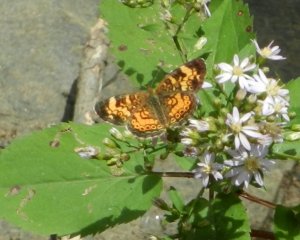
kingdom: Animalia
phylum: Arthropoda
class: Insecta
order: Lepidoptera
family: Nymphalidae
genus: Phyciodes
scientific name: Phyciodes tharos
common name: Pearl Crescent
